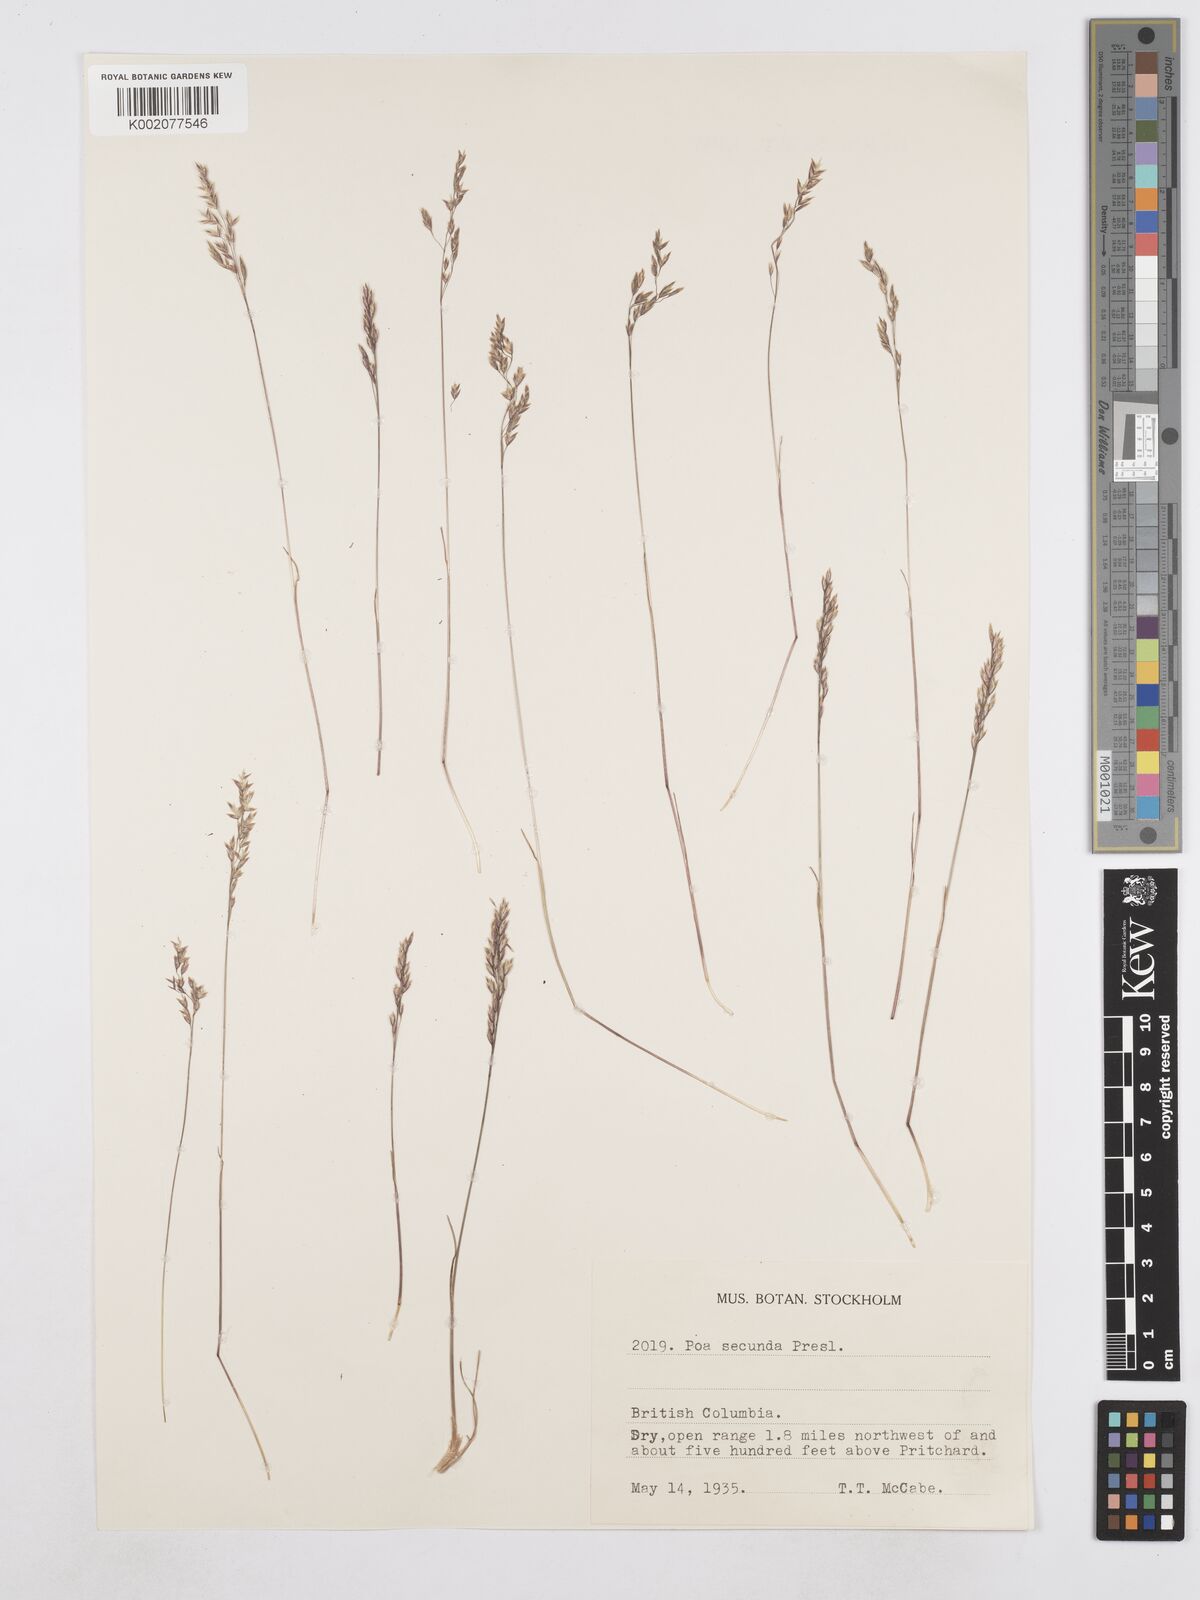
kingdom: Plantae
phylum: Tracheophyta
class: Liliopsida
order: Poales
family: Poaceae
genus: Poa
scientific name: Poa secunda
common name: Sandberg bluegrass
